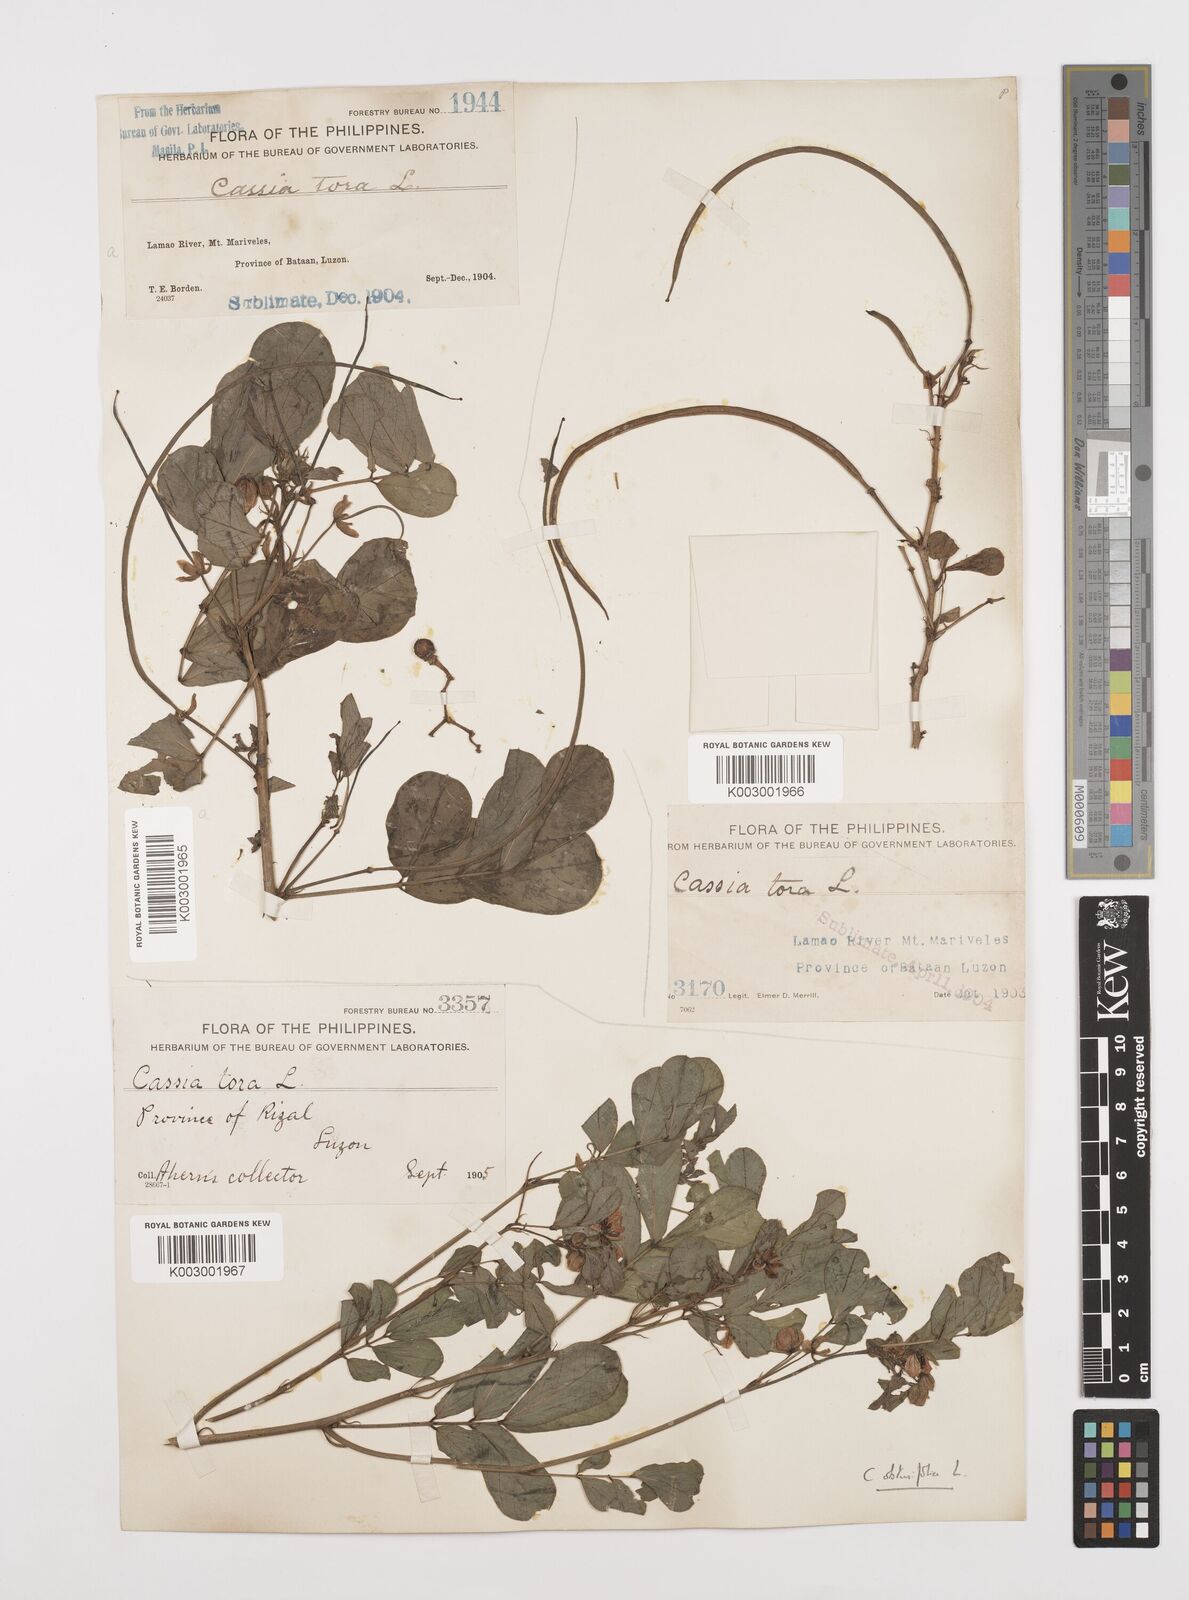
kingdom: Plantae
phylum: Tracheophyta
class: Magnoliopsida
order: Fabales
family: Fabaceae
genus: Senna
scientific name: Senna obtusifolia
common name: Java-bean
